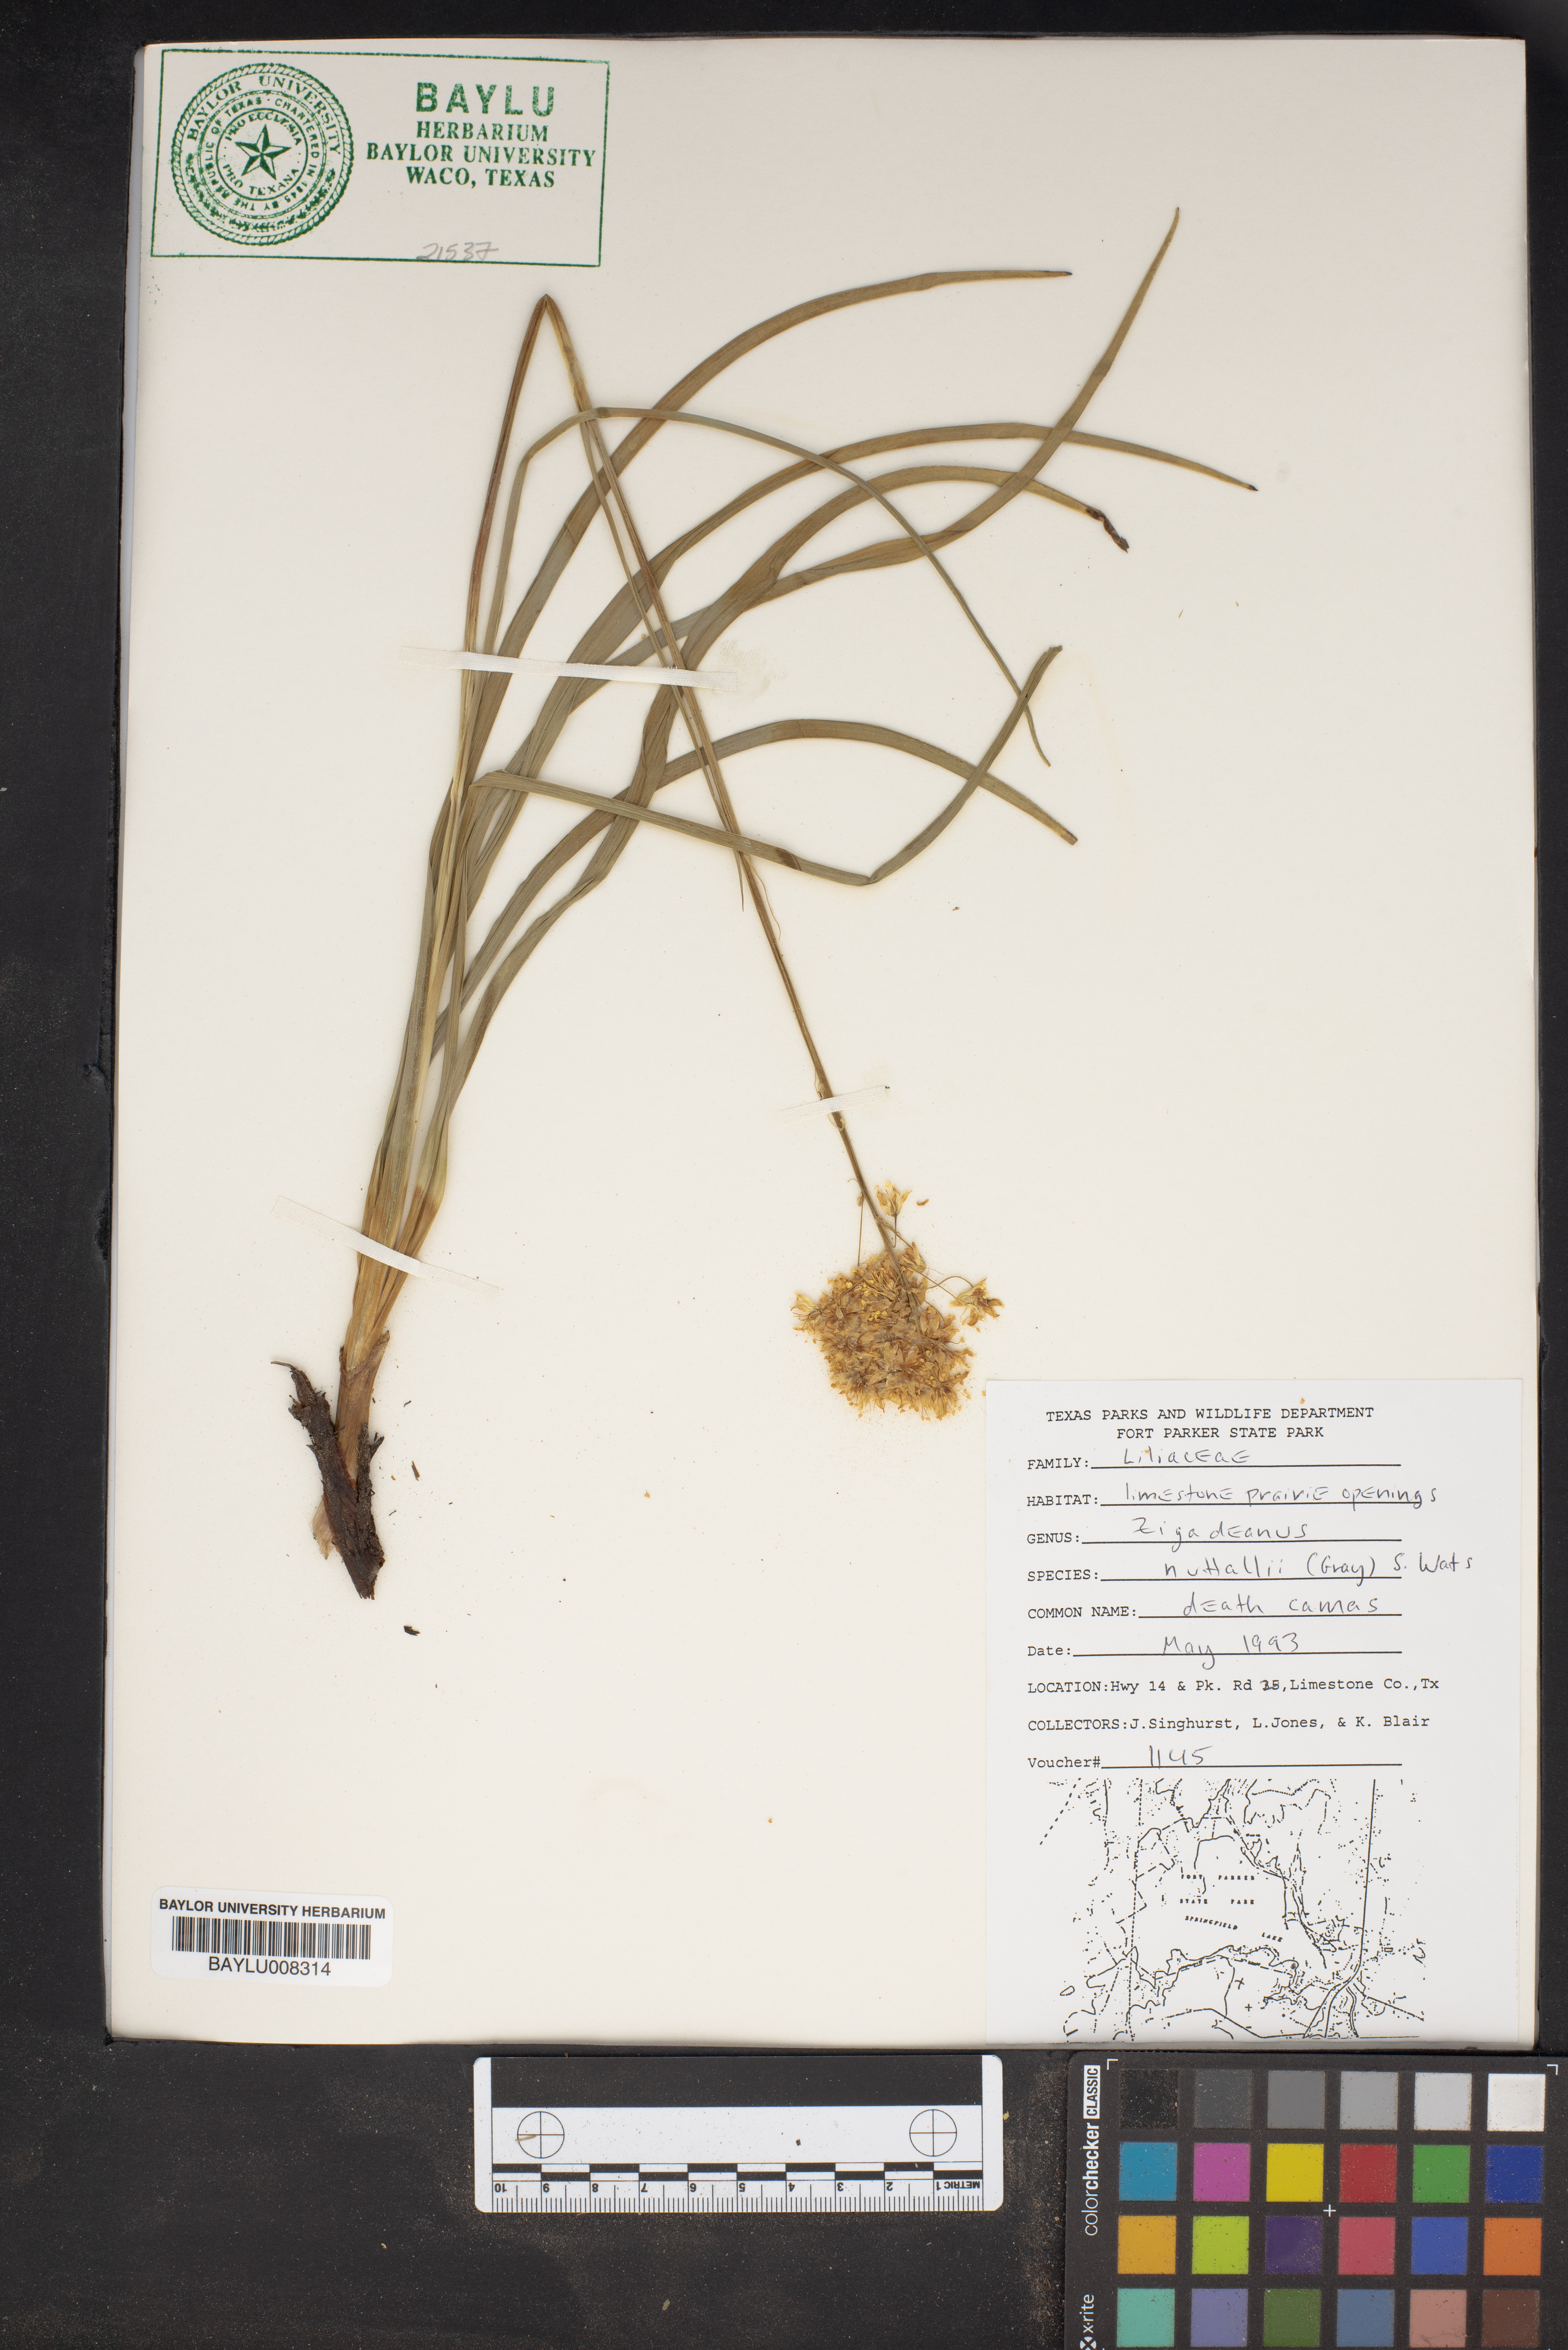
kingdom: Plantae
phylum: Tracheophyta
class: Liliopsida
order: Liliales
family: Melanthiaceae
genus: Toxicoscordion
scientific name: Toxicoscordion nuttallii
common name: Poison sego
